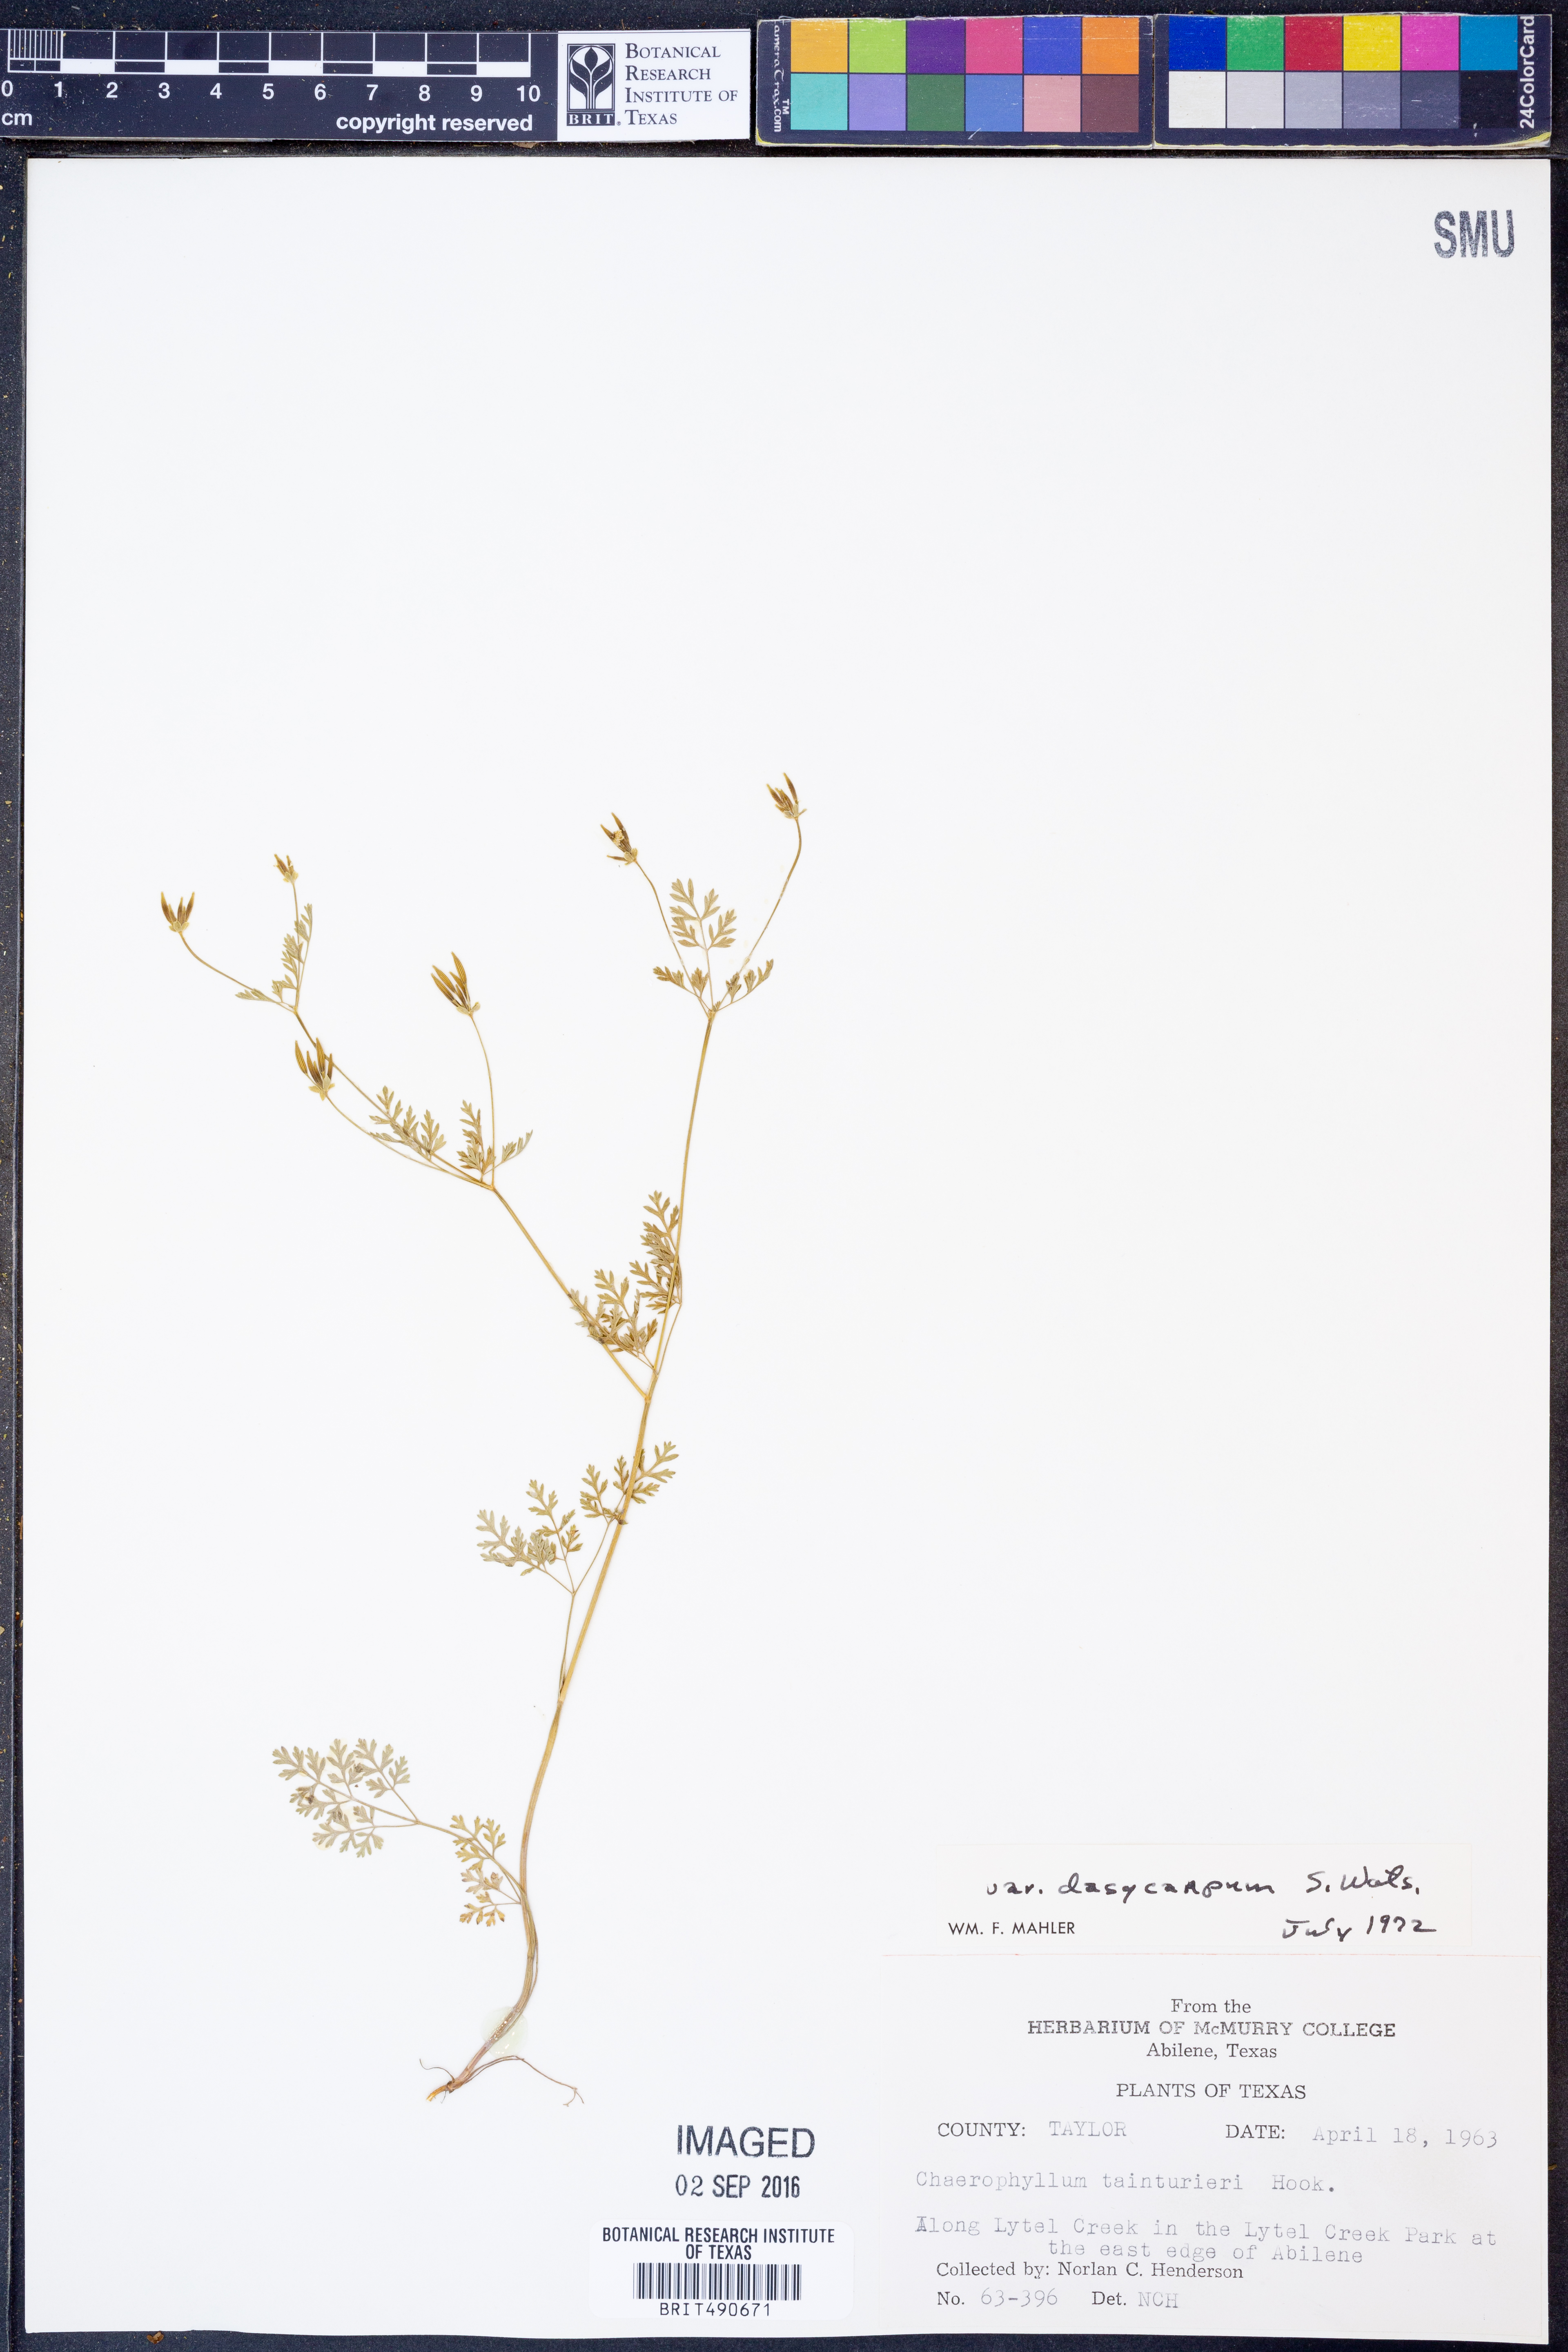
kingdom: Plantae
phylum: Tracheophyta
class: Magnoliopsida
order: Apiales
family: Apiaceae
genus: Chaerophyllum
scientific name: Chaerophyllum dasycarpum
